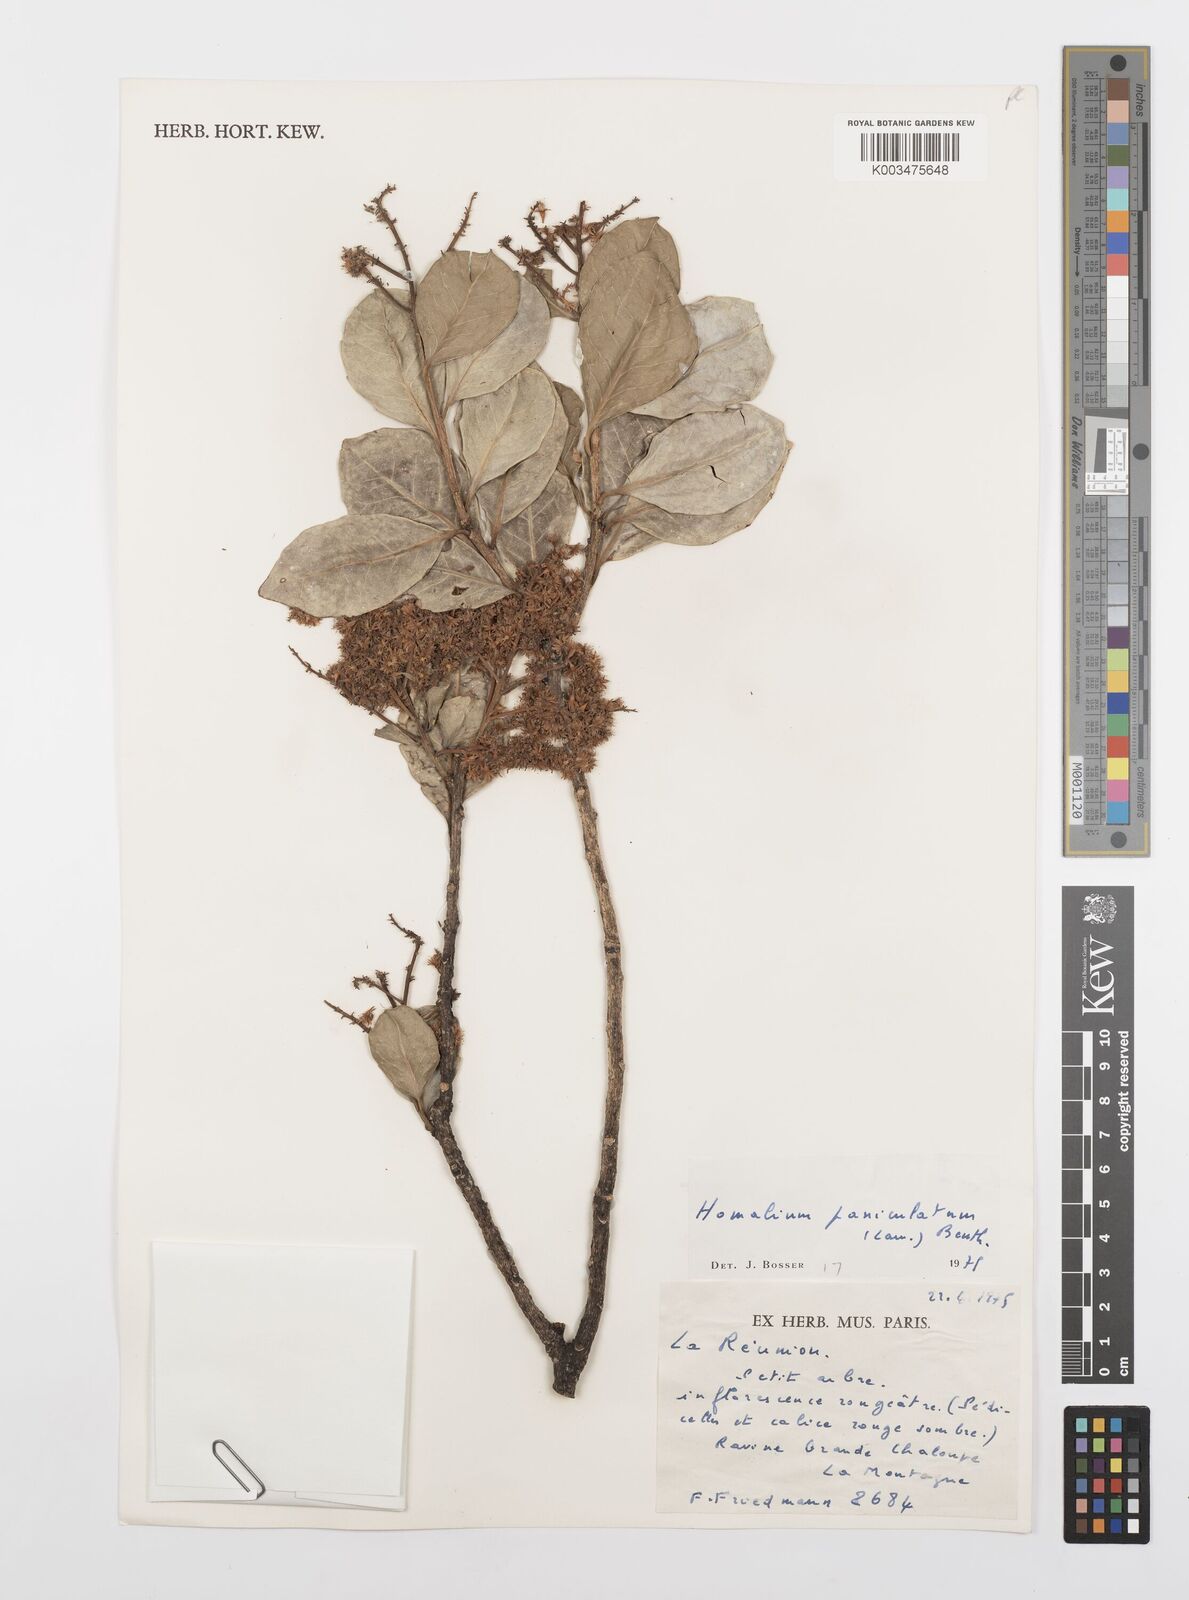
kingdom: Plantae
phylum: Tracheophyta
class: Magnoliopsida
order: Malpighiales
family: Salicaceae
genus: Homalium
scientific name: Homalium erianthum
